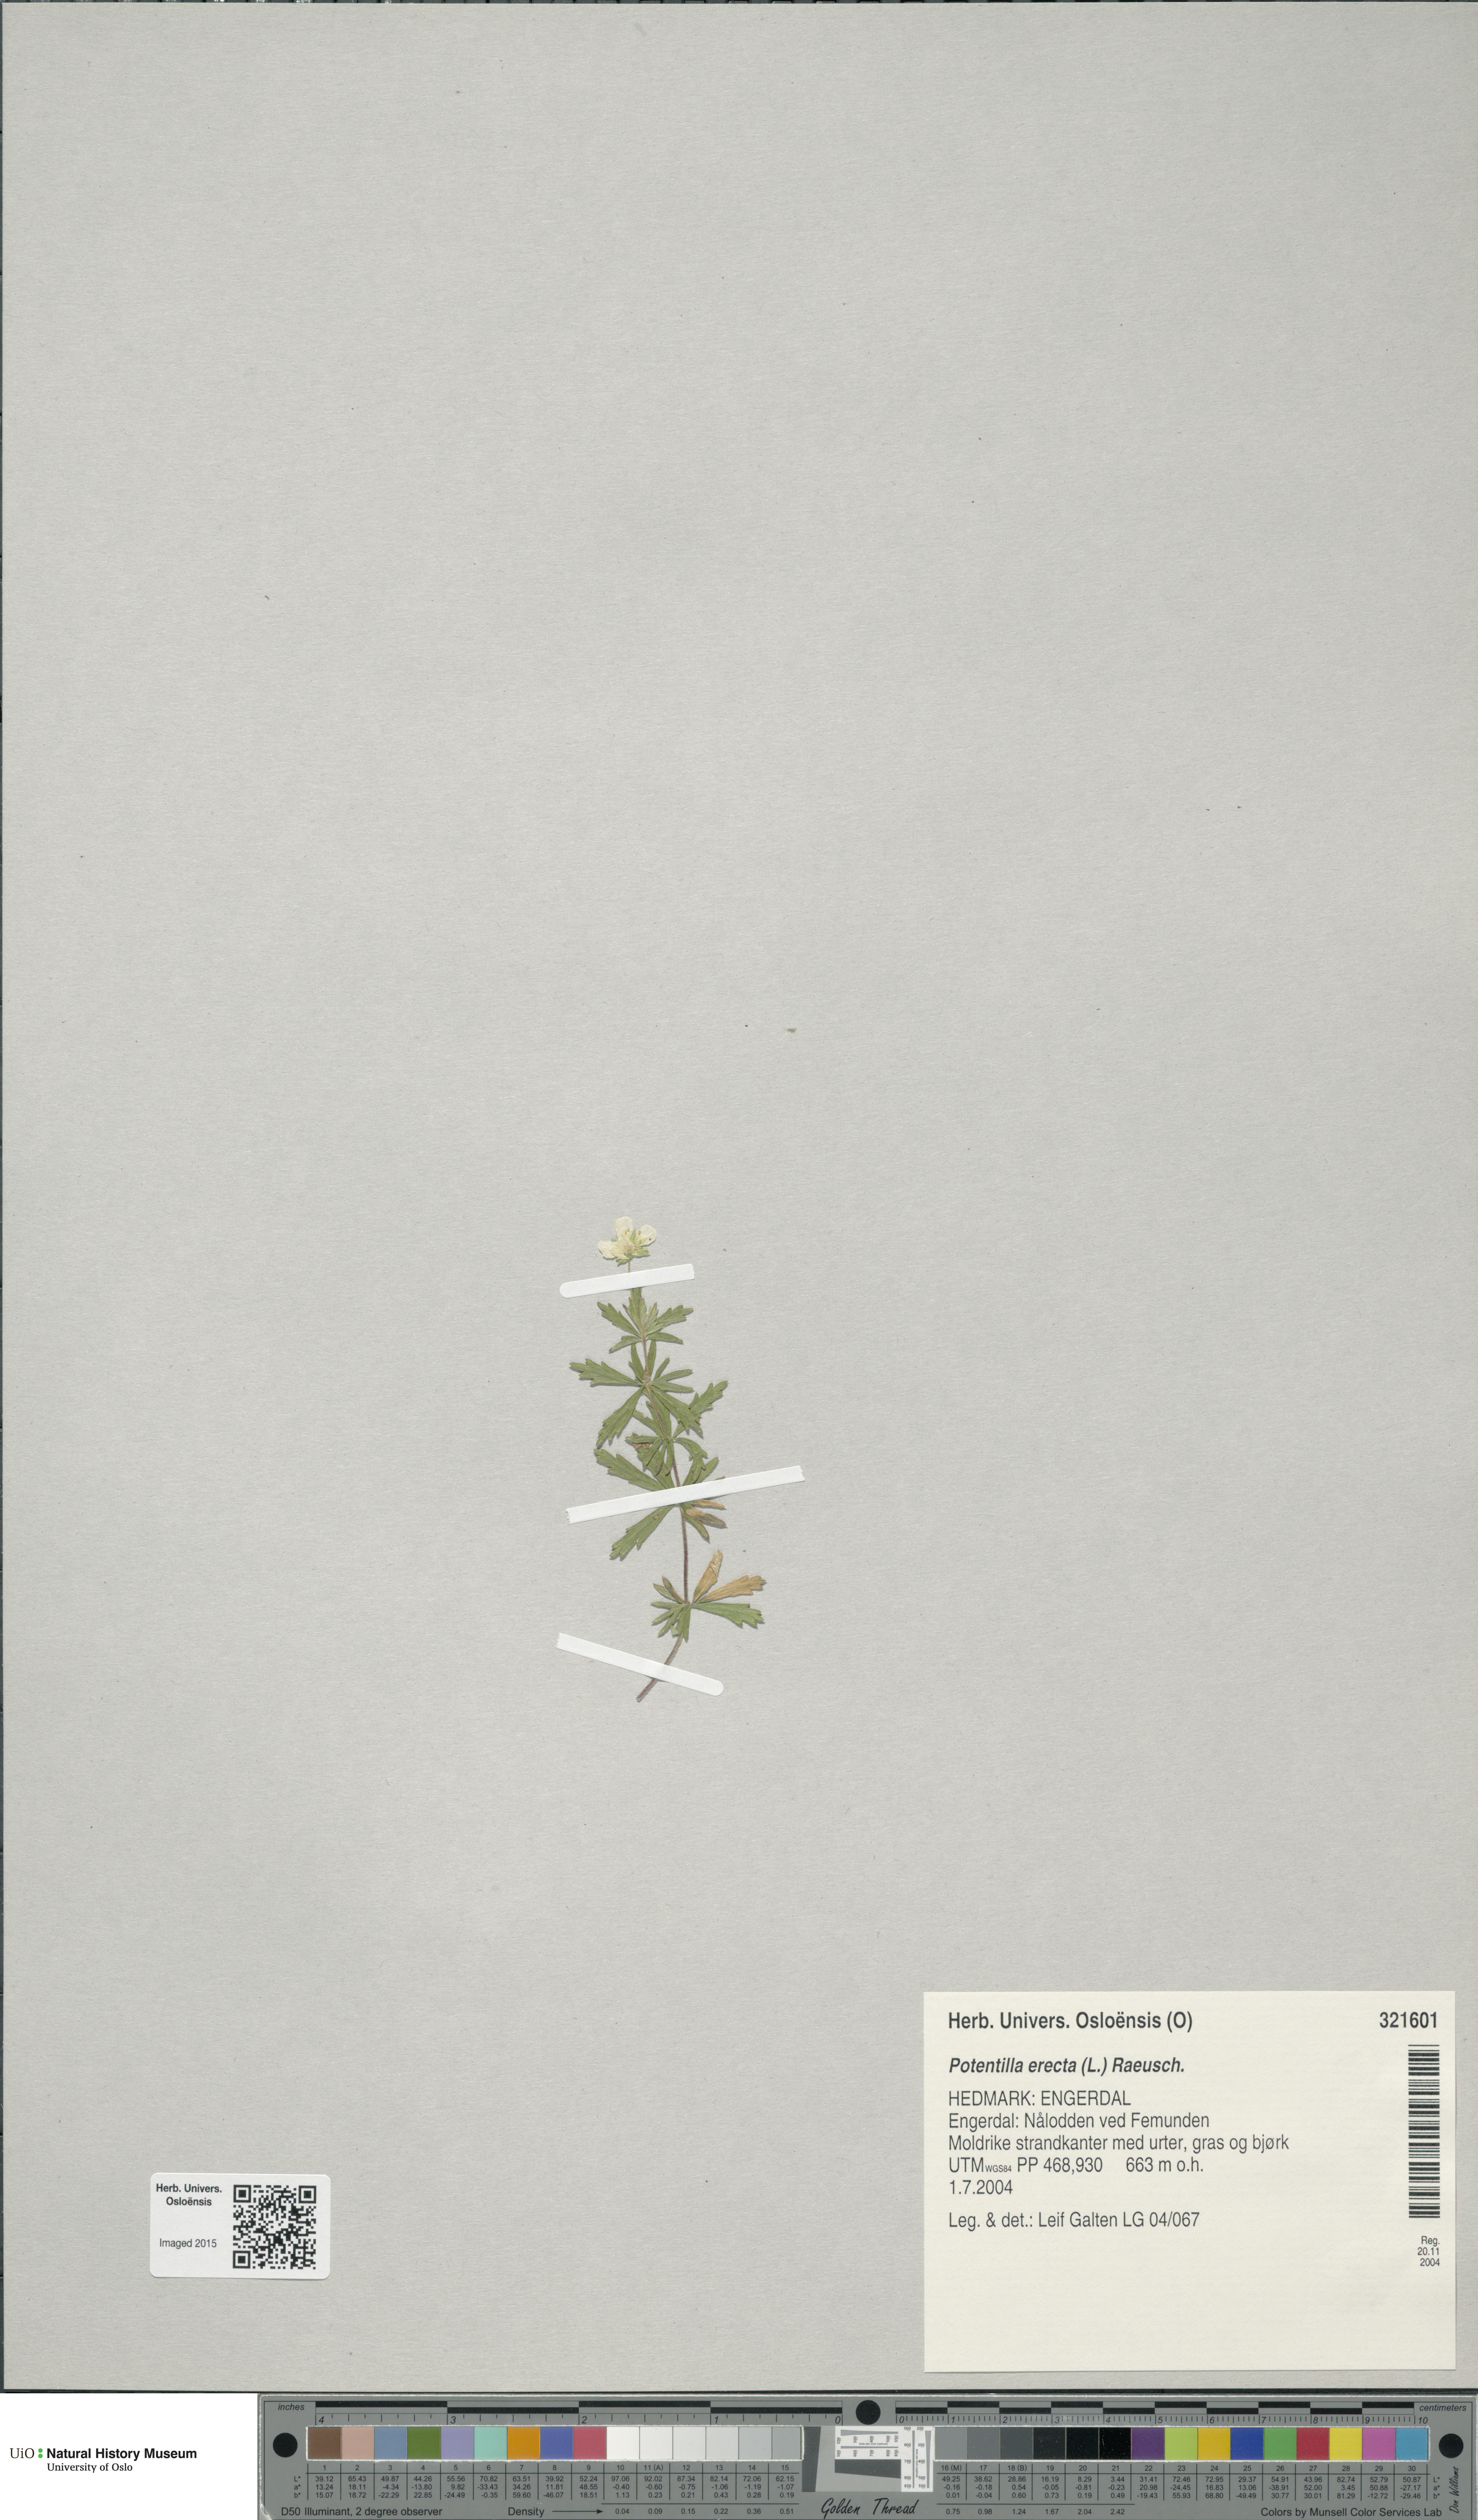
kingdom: Plantae
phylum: Tracheophyta
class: Magnoliopsida
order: Rosales
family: Rosaceae
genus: Potentilla
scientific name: Potentilla erecta
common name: Tormentil
